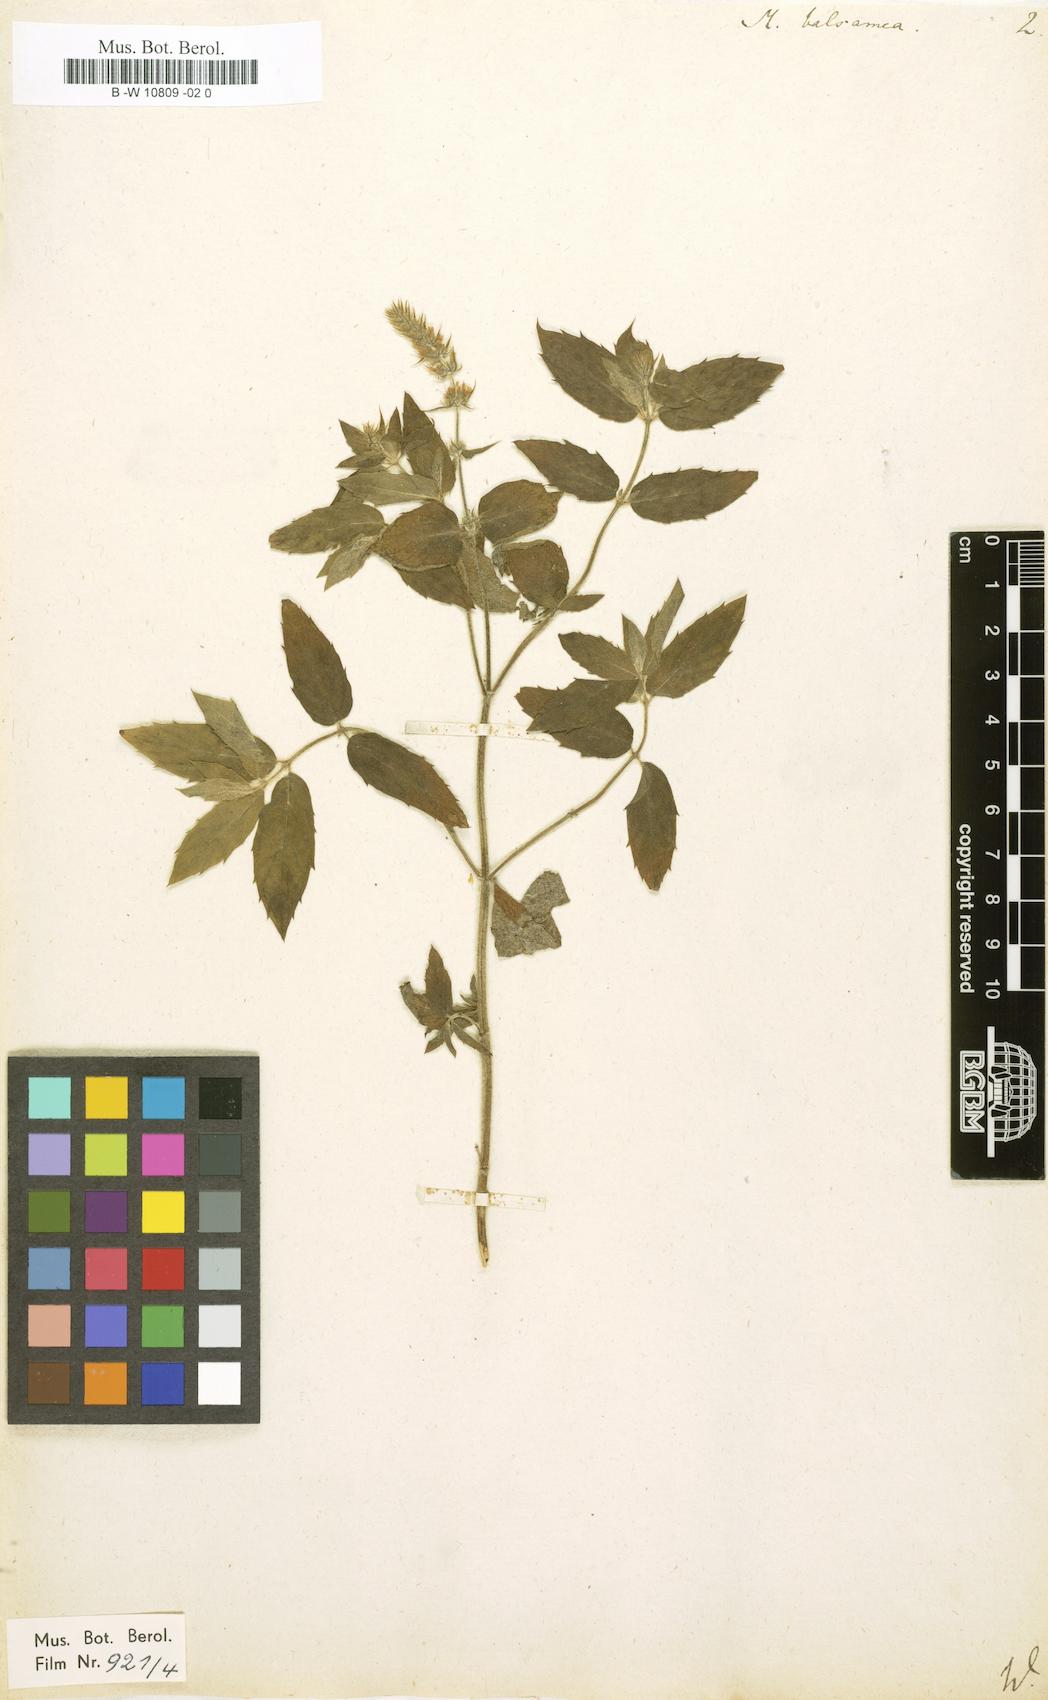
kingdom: Plantae
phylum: Tracheophyta
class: Magnoliopsida
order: Lamiales
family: Lamiaceae
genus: Mentha
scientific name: Mentha
